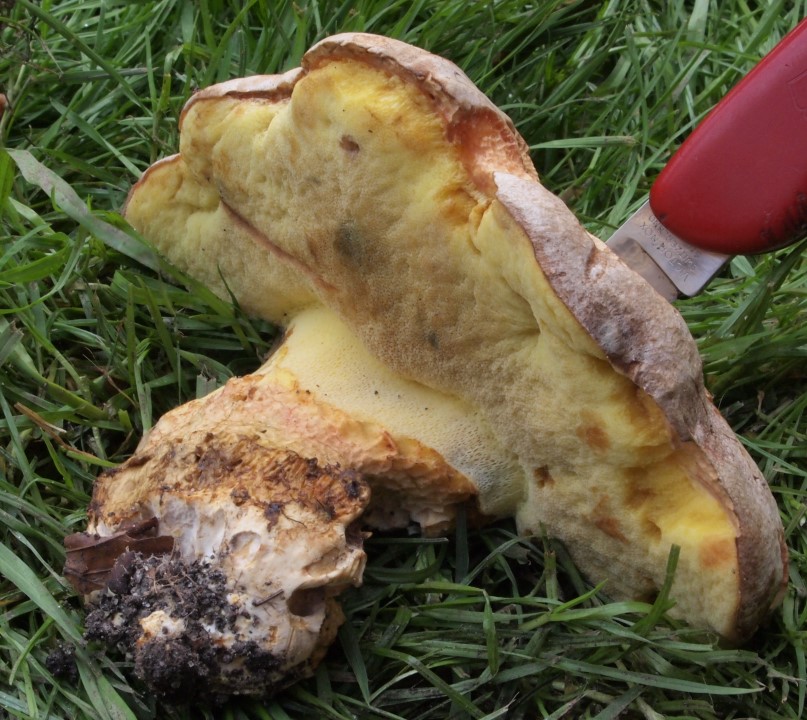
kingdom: Fungi
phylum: Basidiomycota
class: Agaricomycetes
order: Boletales
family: Boletaceae
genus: Butyriboletus
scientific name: Butyriboletus appendiculatus
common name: tenstokket rørhat
